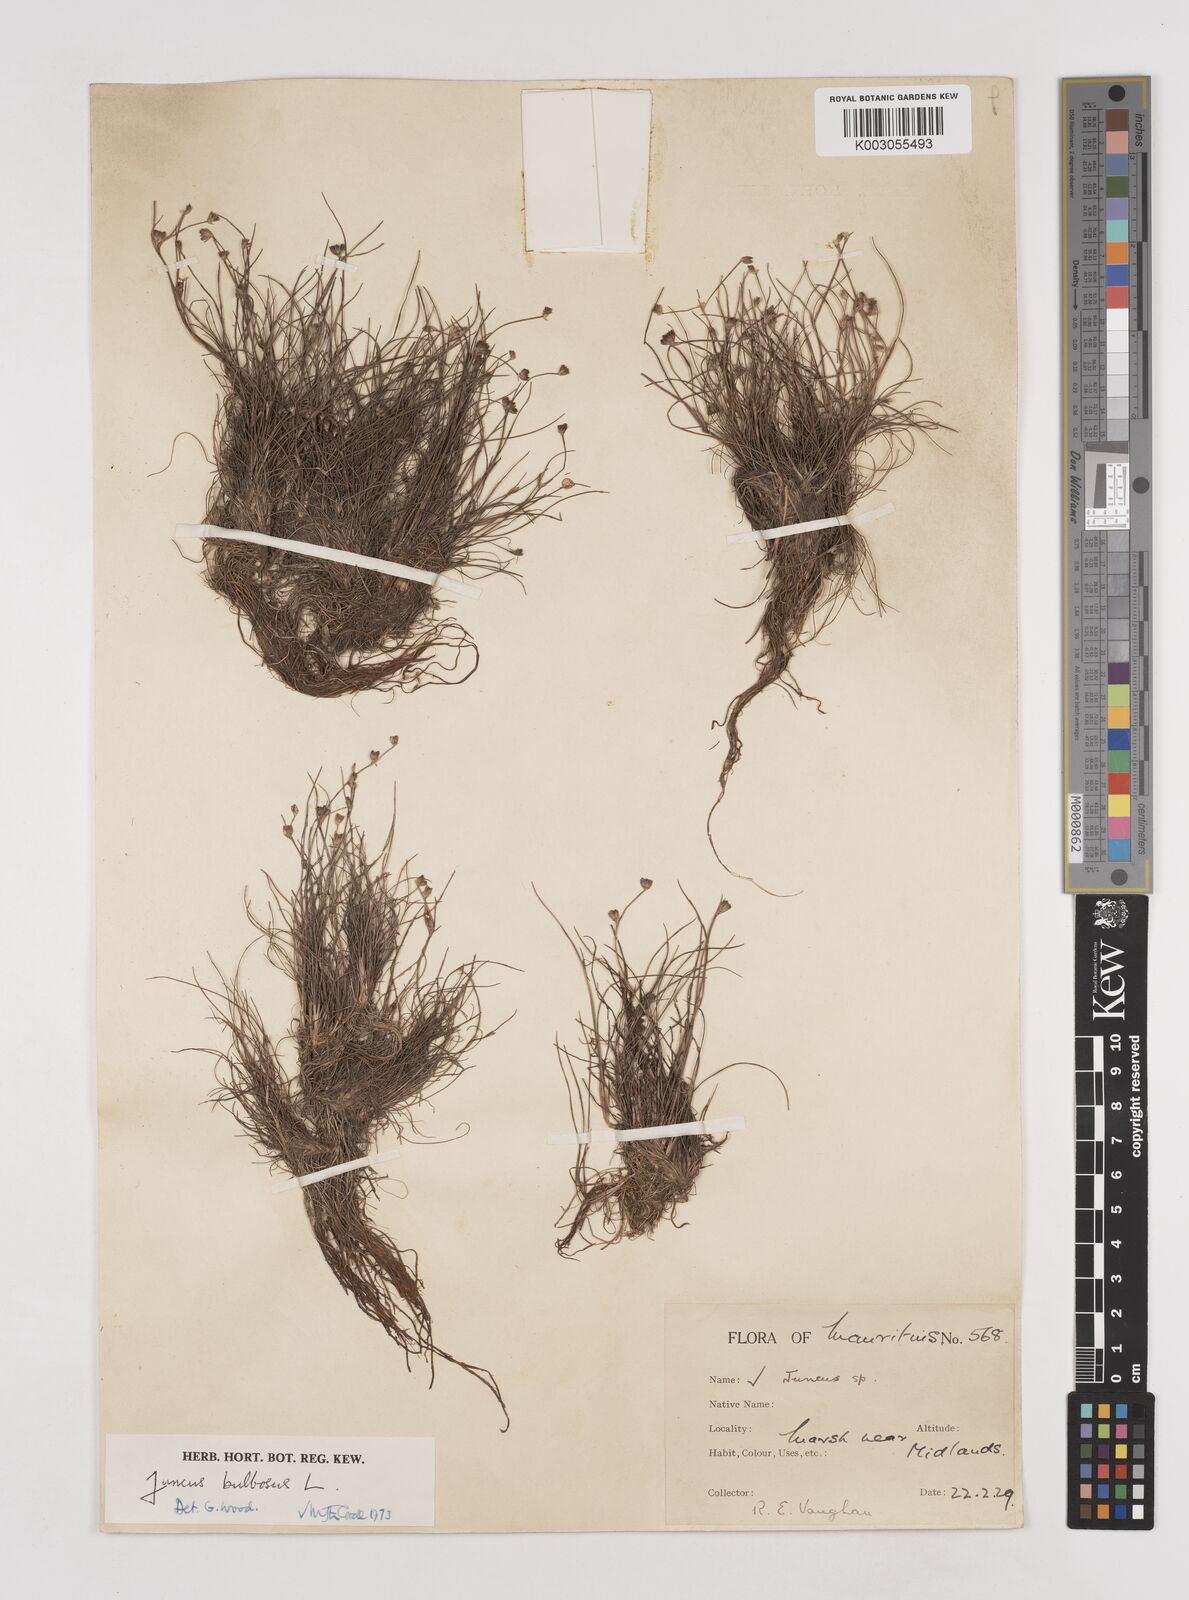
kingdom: Plantae
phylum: Tracheophyta
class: Liliopsida
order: Poales
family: Juncaceae
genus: Juncus
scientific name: Juncus bulbosus
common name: Bulbous rush
